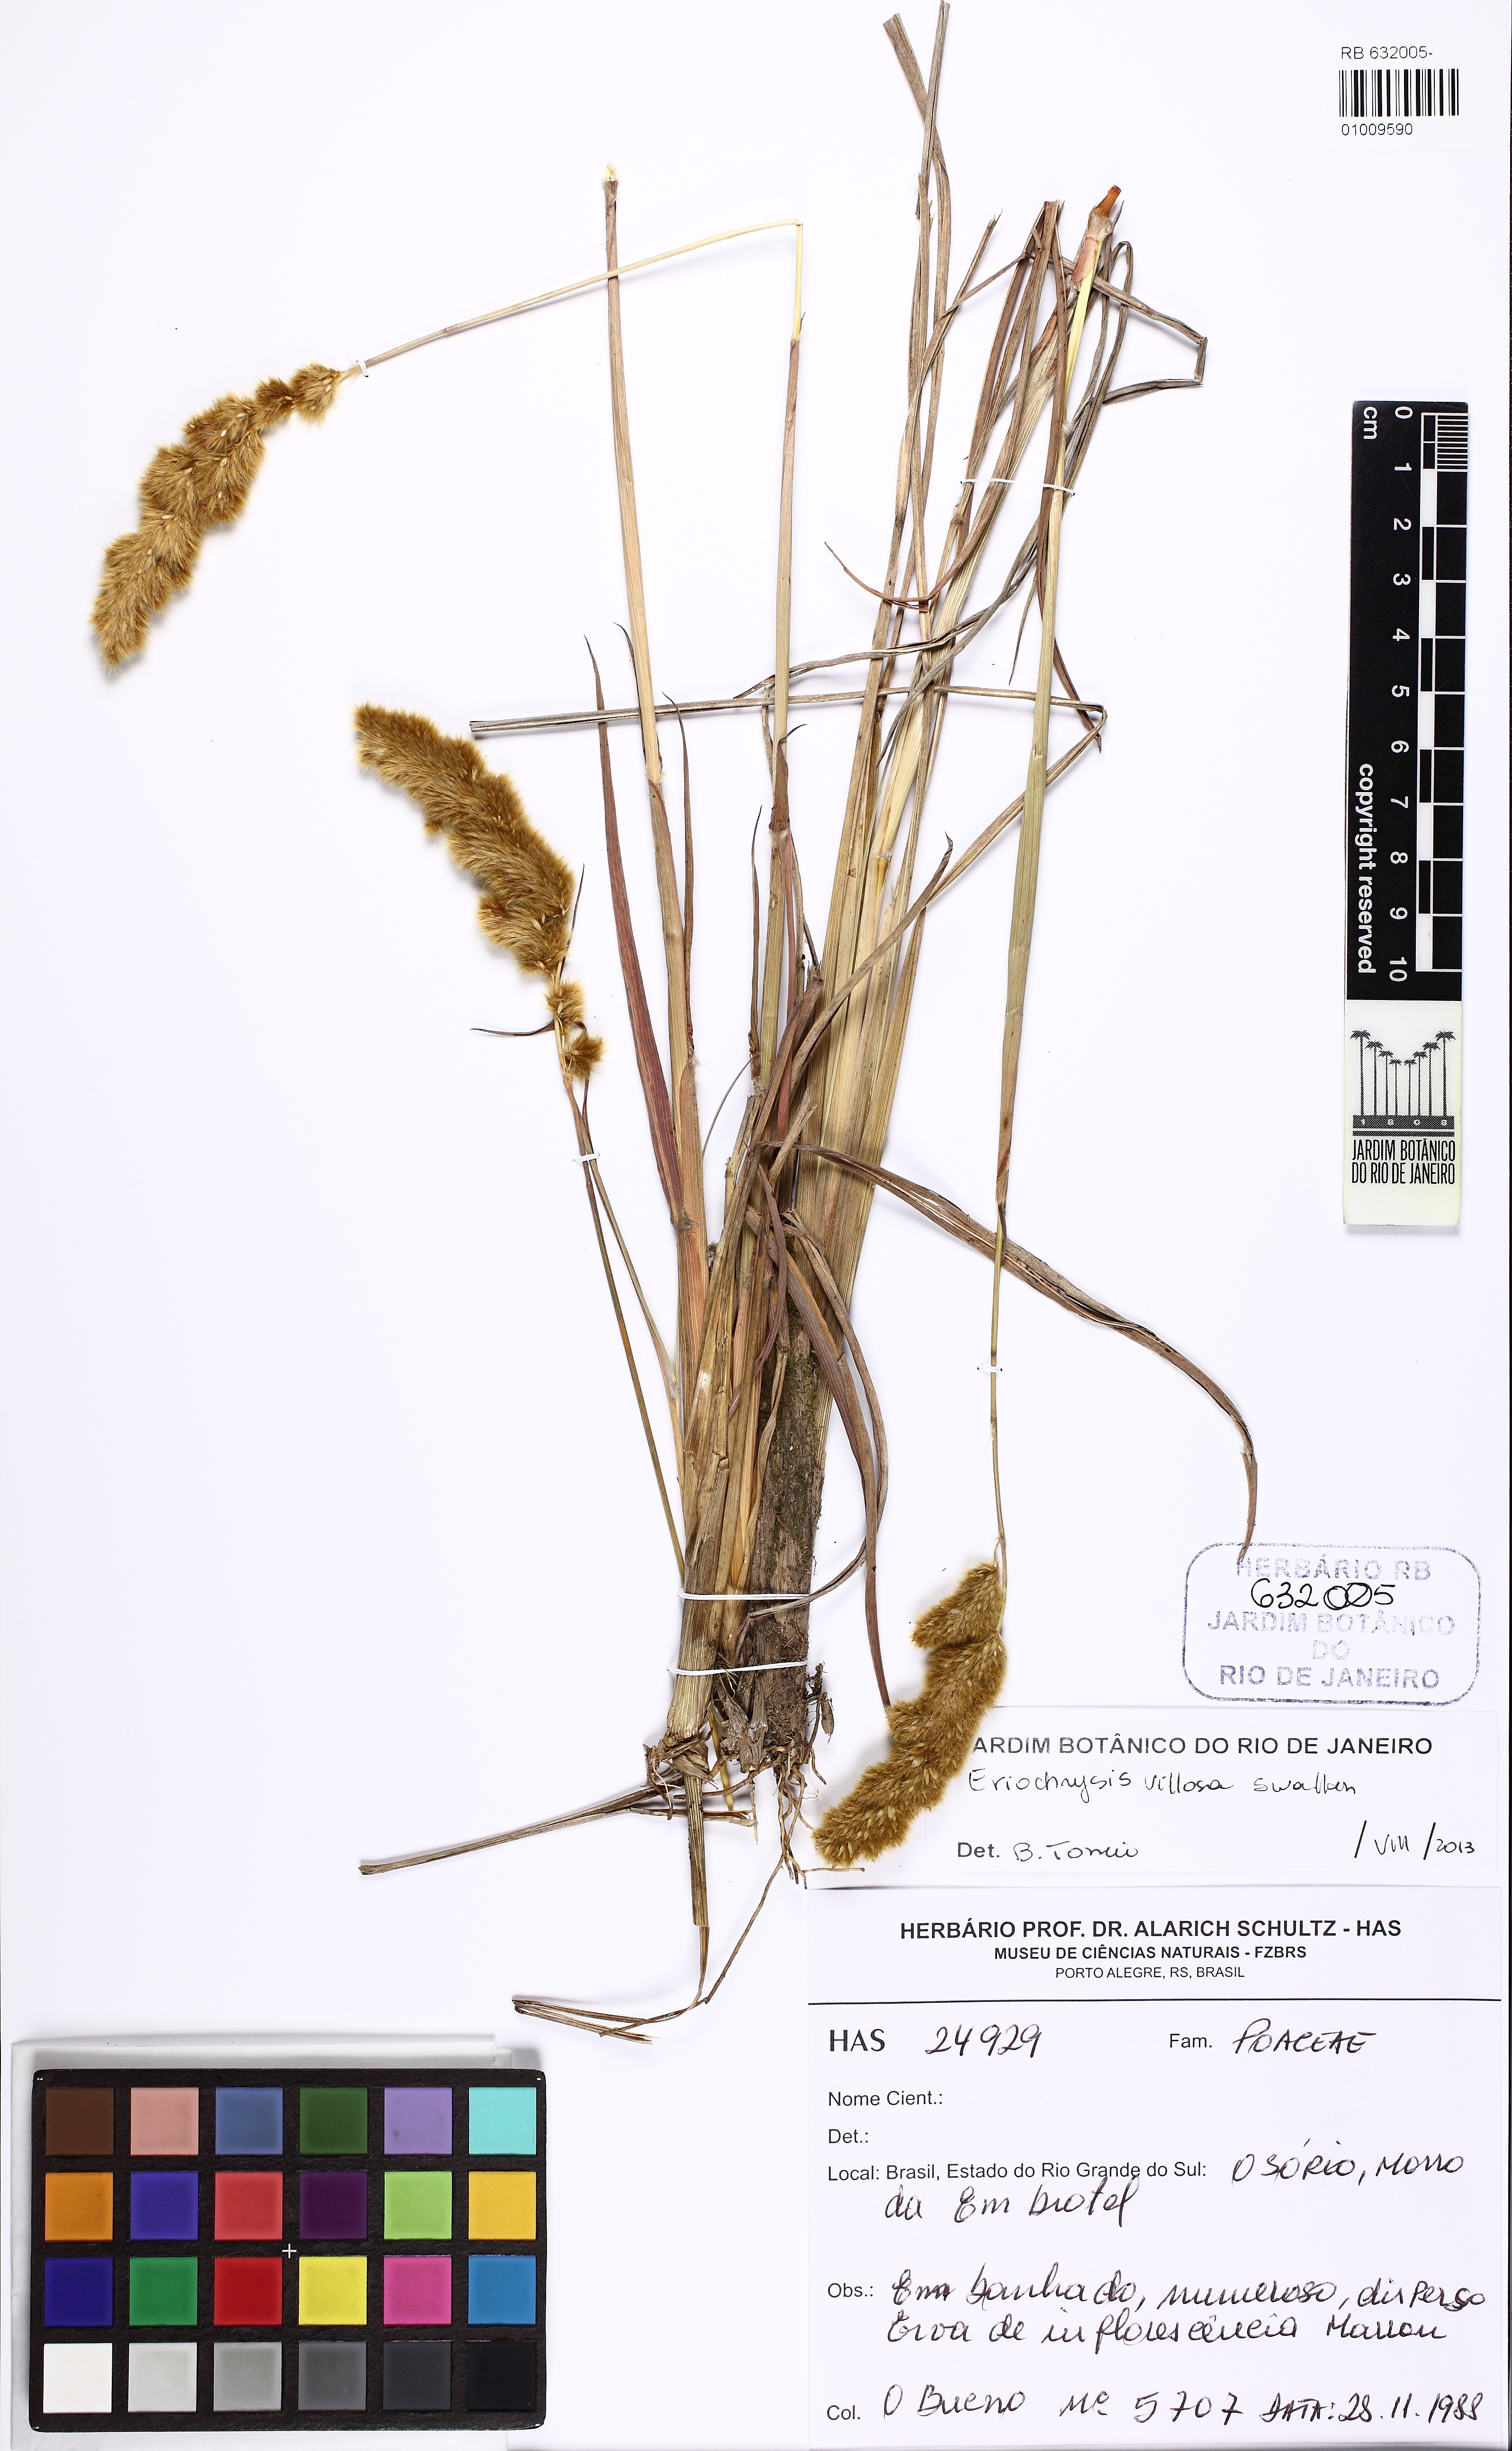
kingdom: Plantae
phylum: Tracheophyta
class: Liliopsida
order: Poales
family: Poaceae
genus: Eriochrysis
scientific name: Eriochrysis villosa
